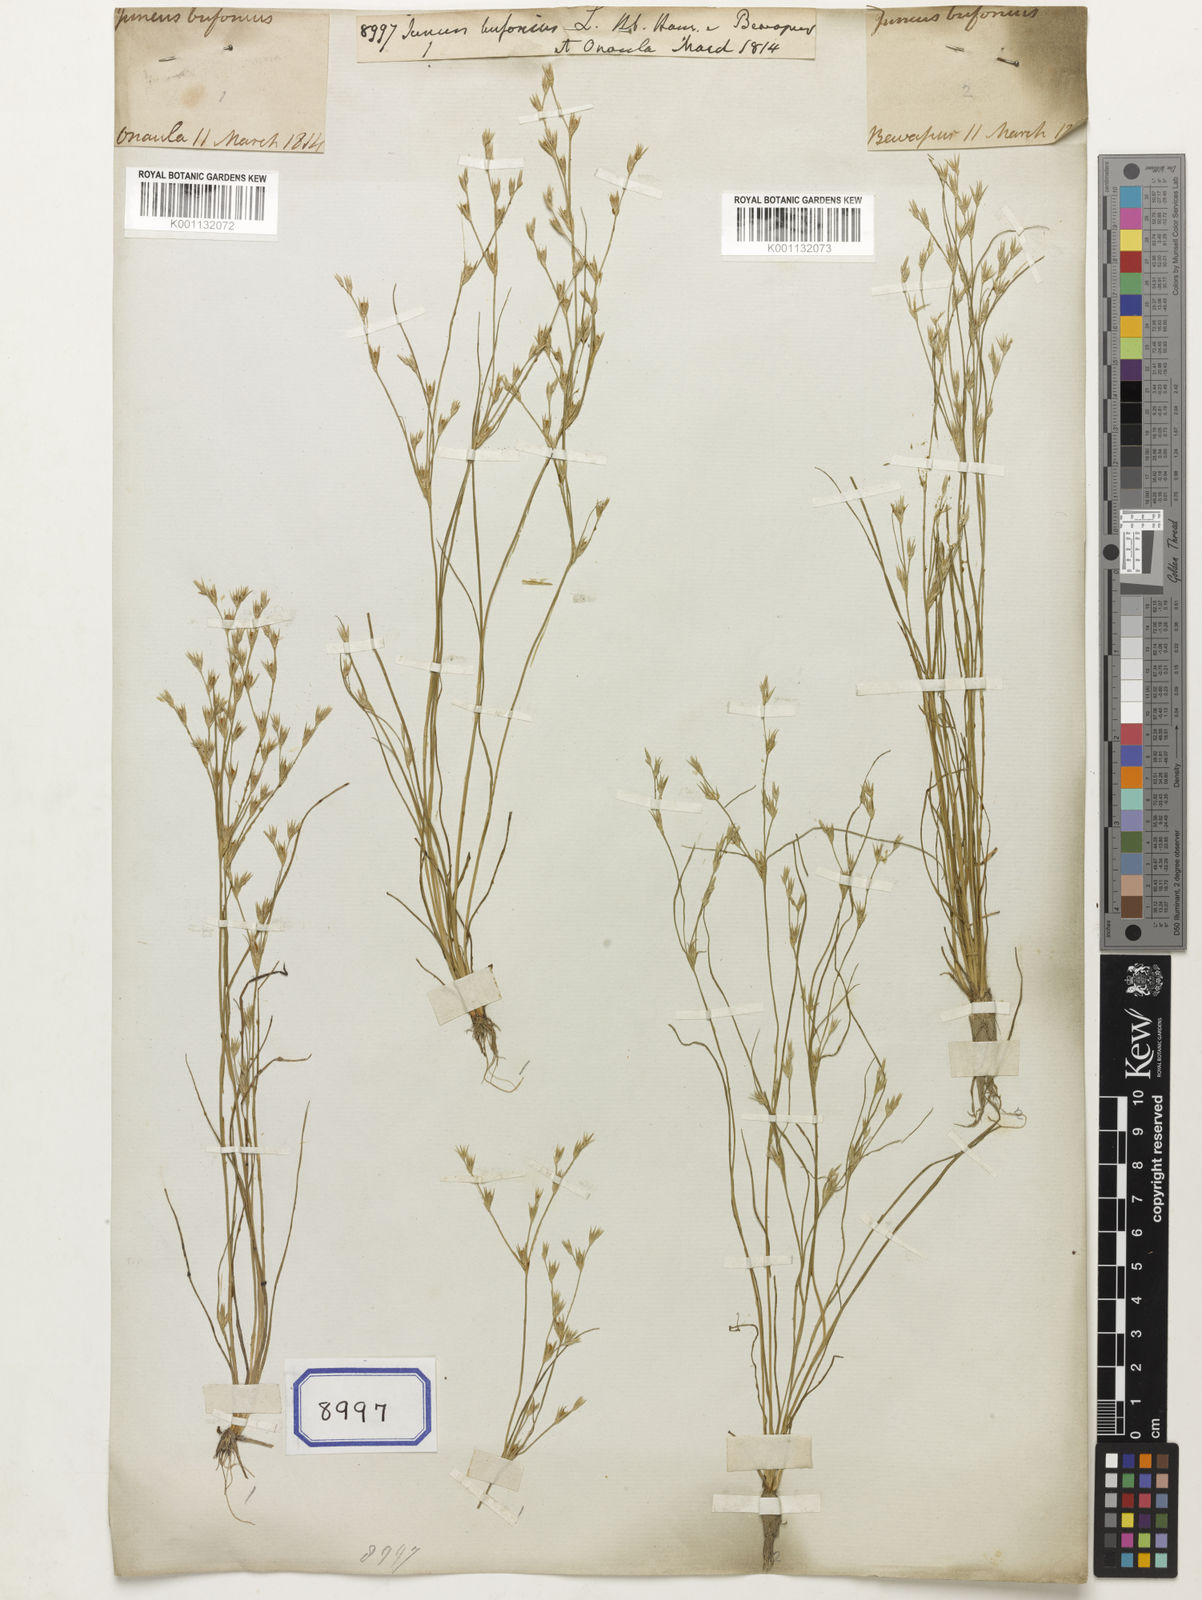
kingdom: Plantae
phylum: Tracheophyta
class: Liliopsida
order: Poales
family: Juncaceae
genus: Juncus
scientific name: Juncus bufonius
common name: Toad rush
